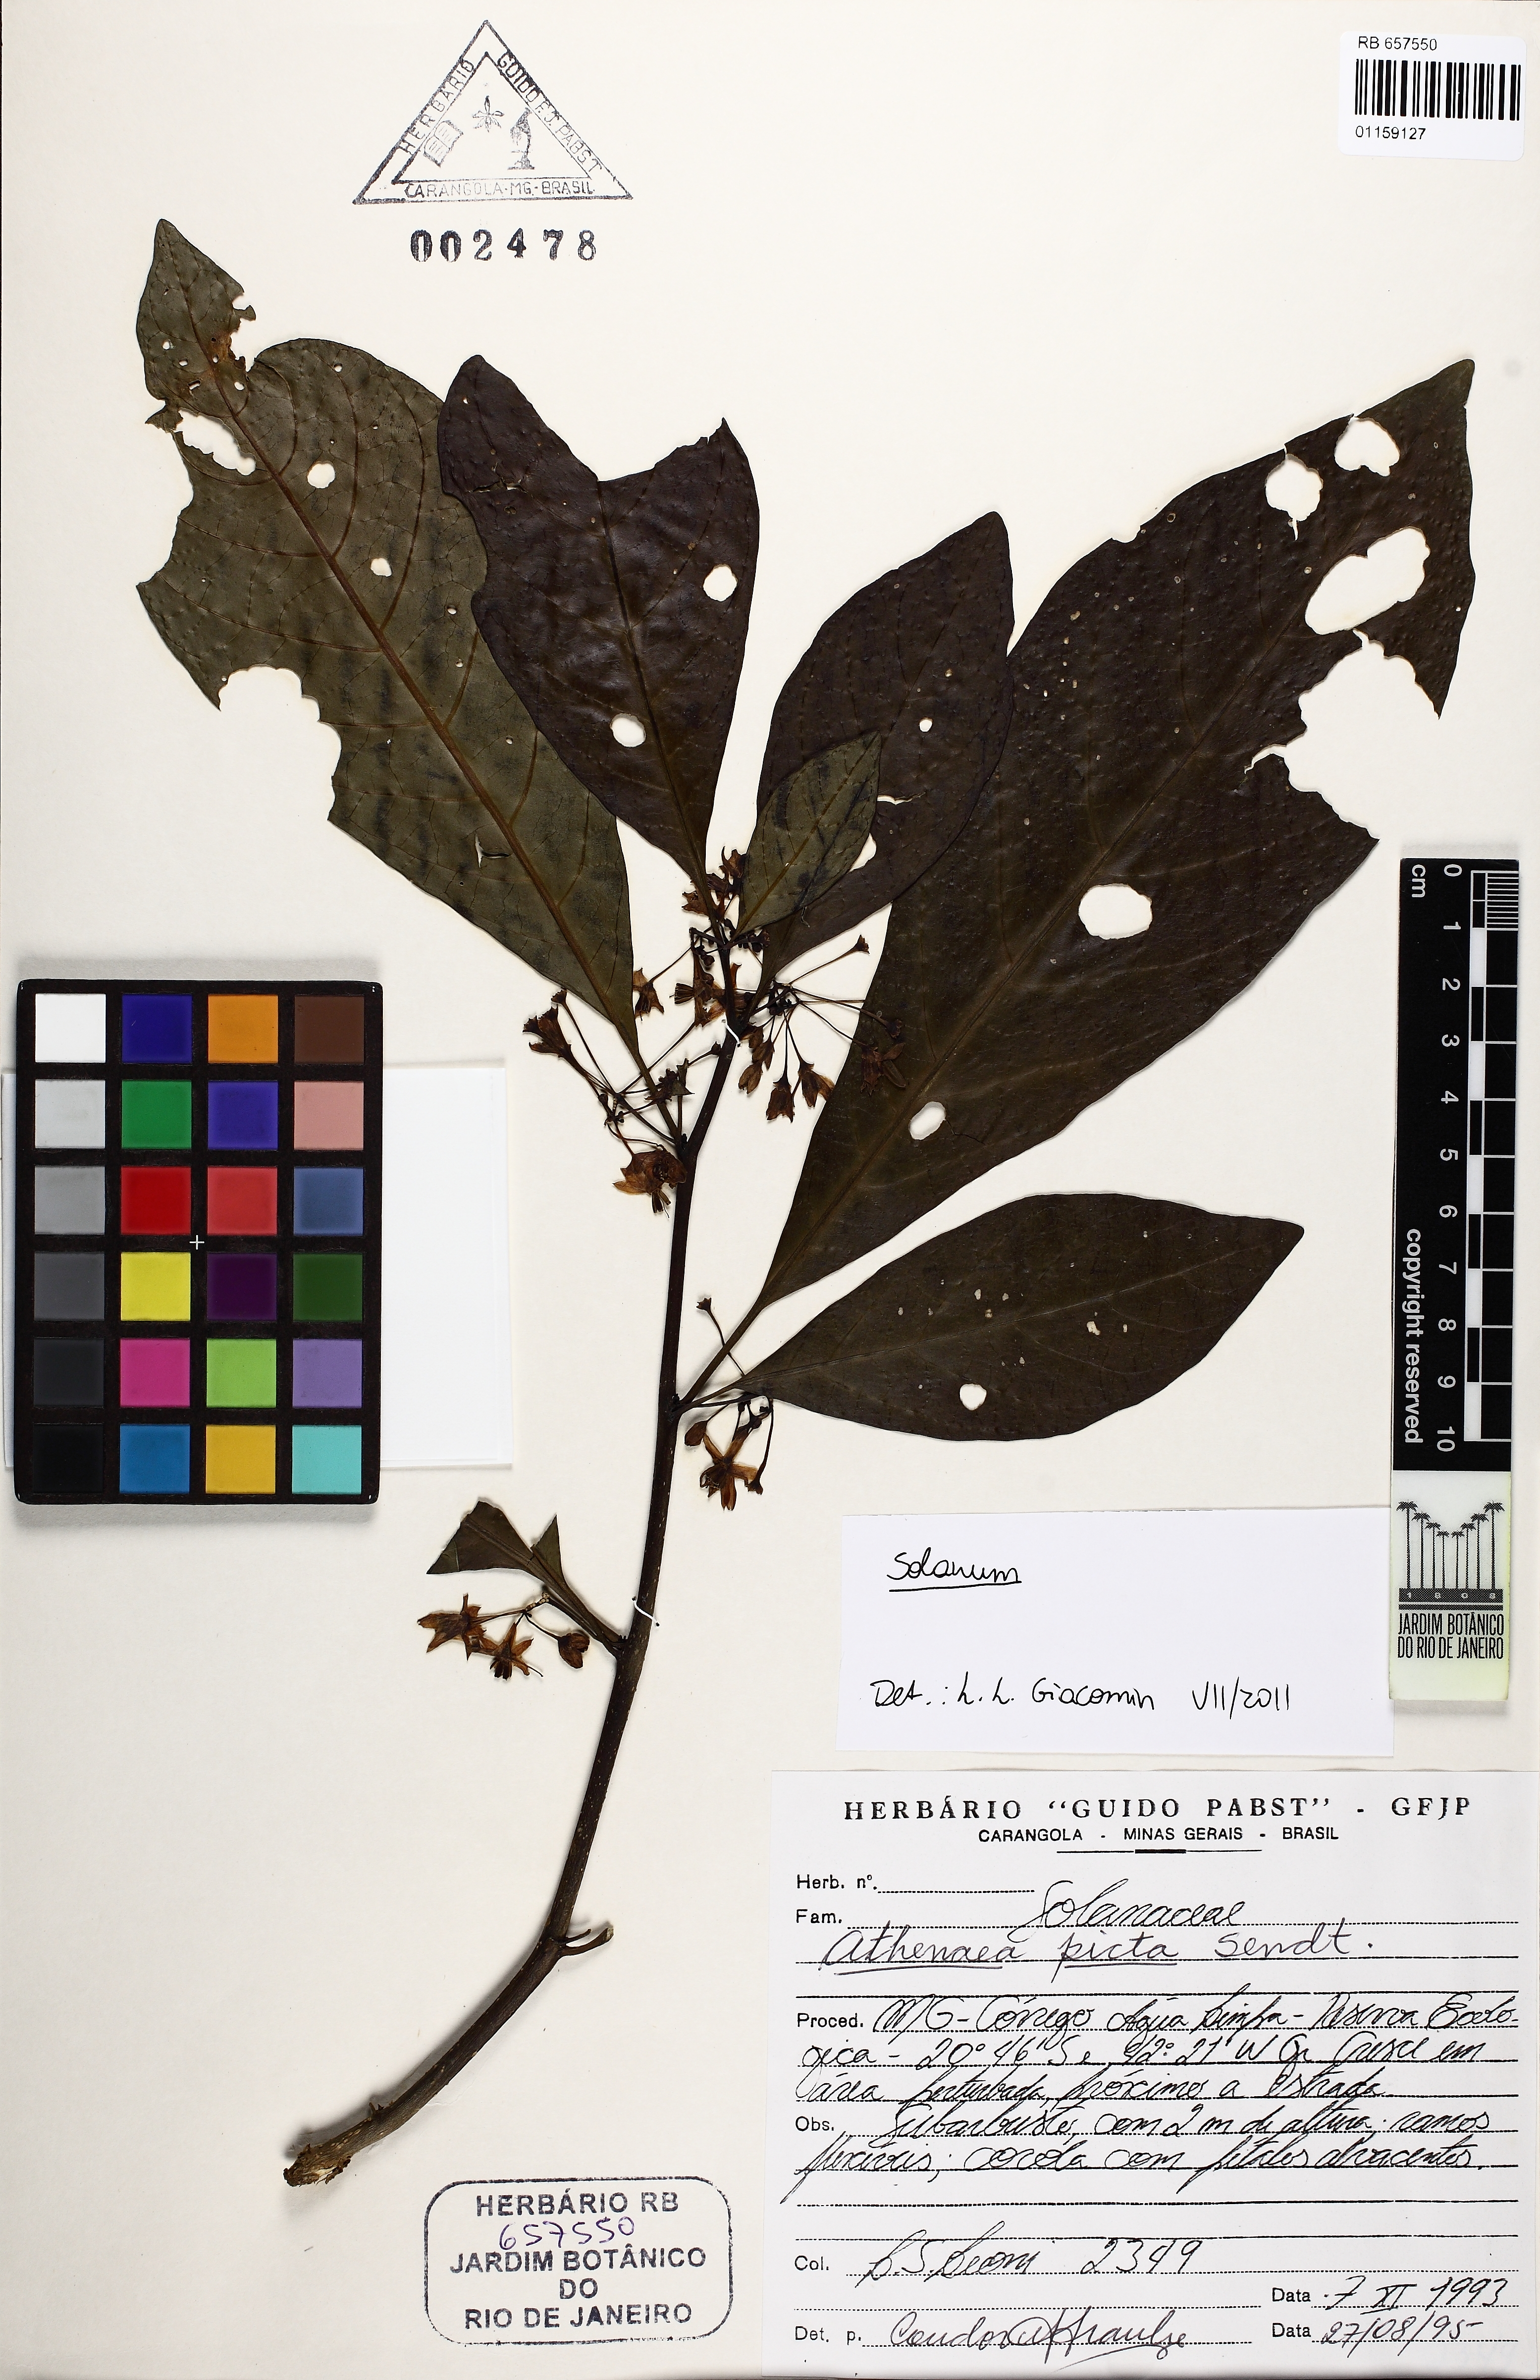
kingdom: Plantae
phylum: Tracheophyta
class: Magnoliopsida
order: Solanales
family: Solanaceae
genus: Solanum
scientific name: Solanum psilophyllum
